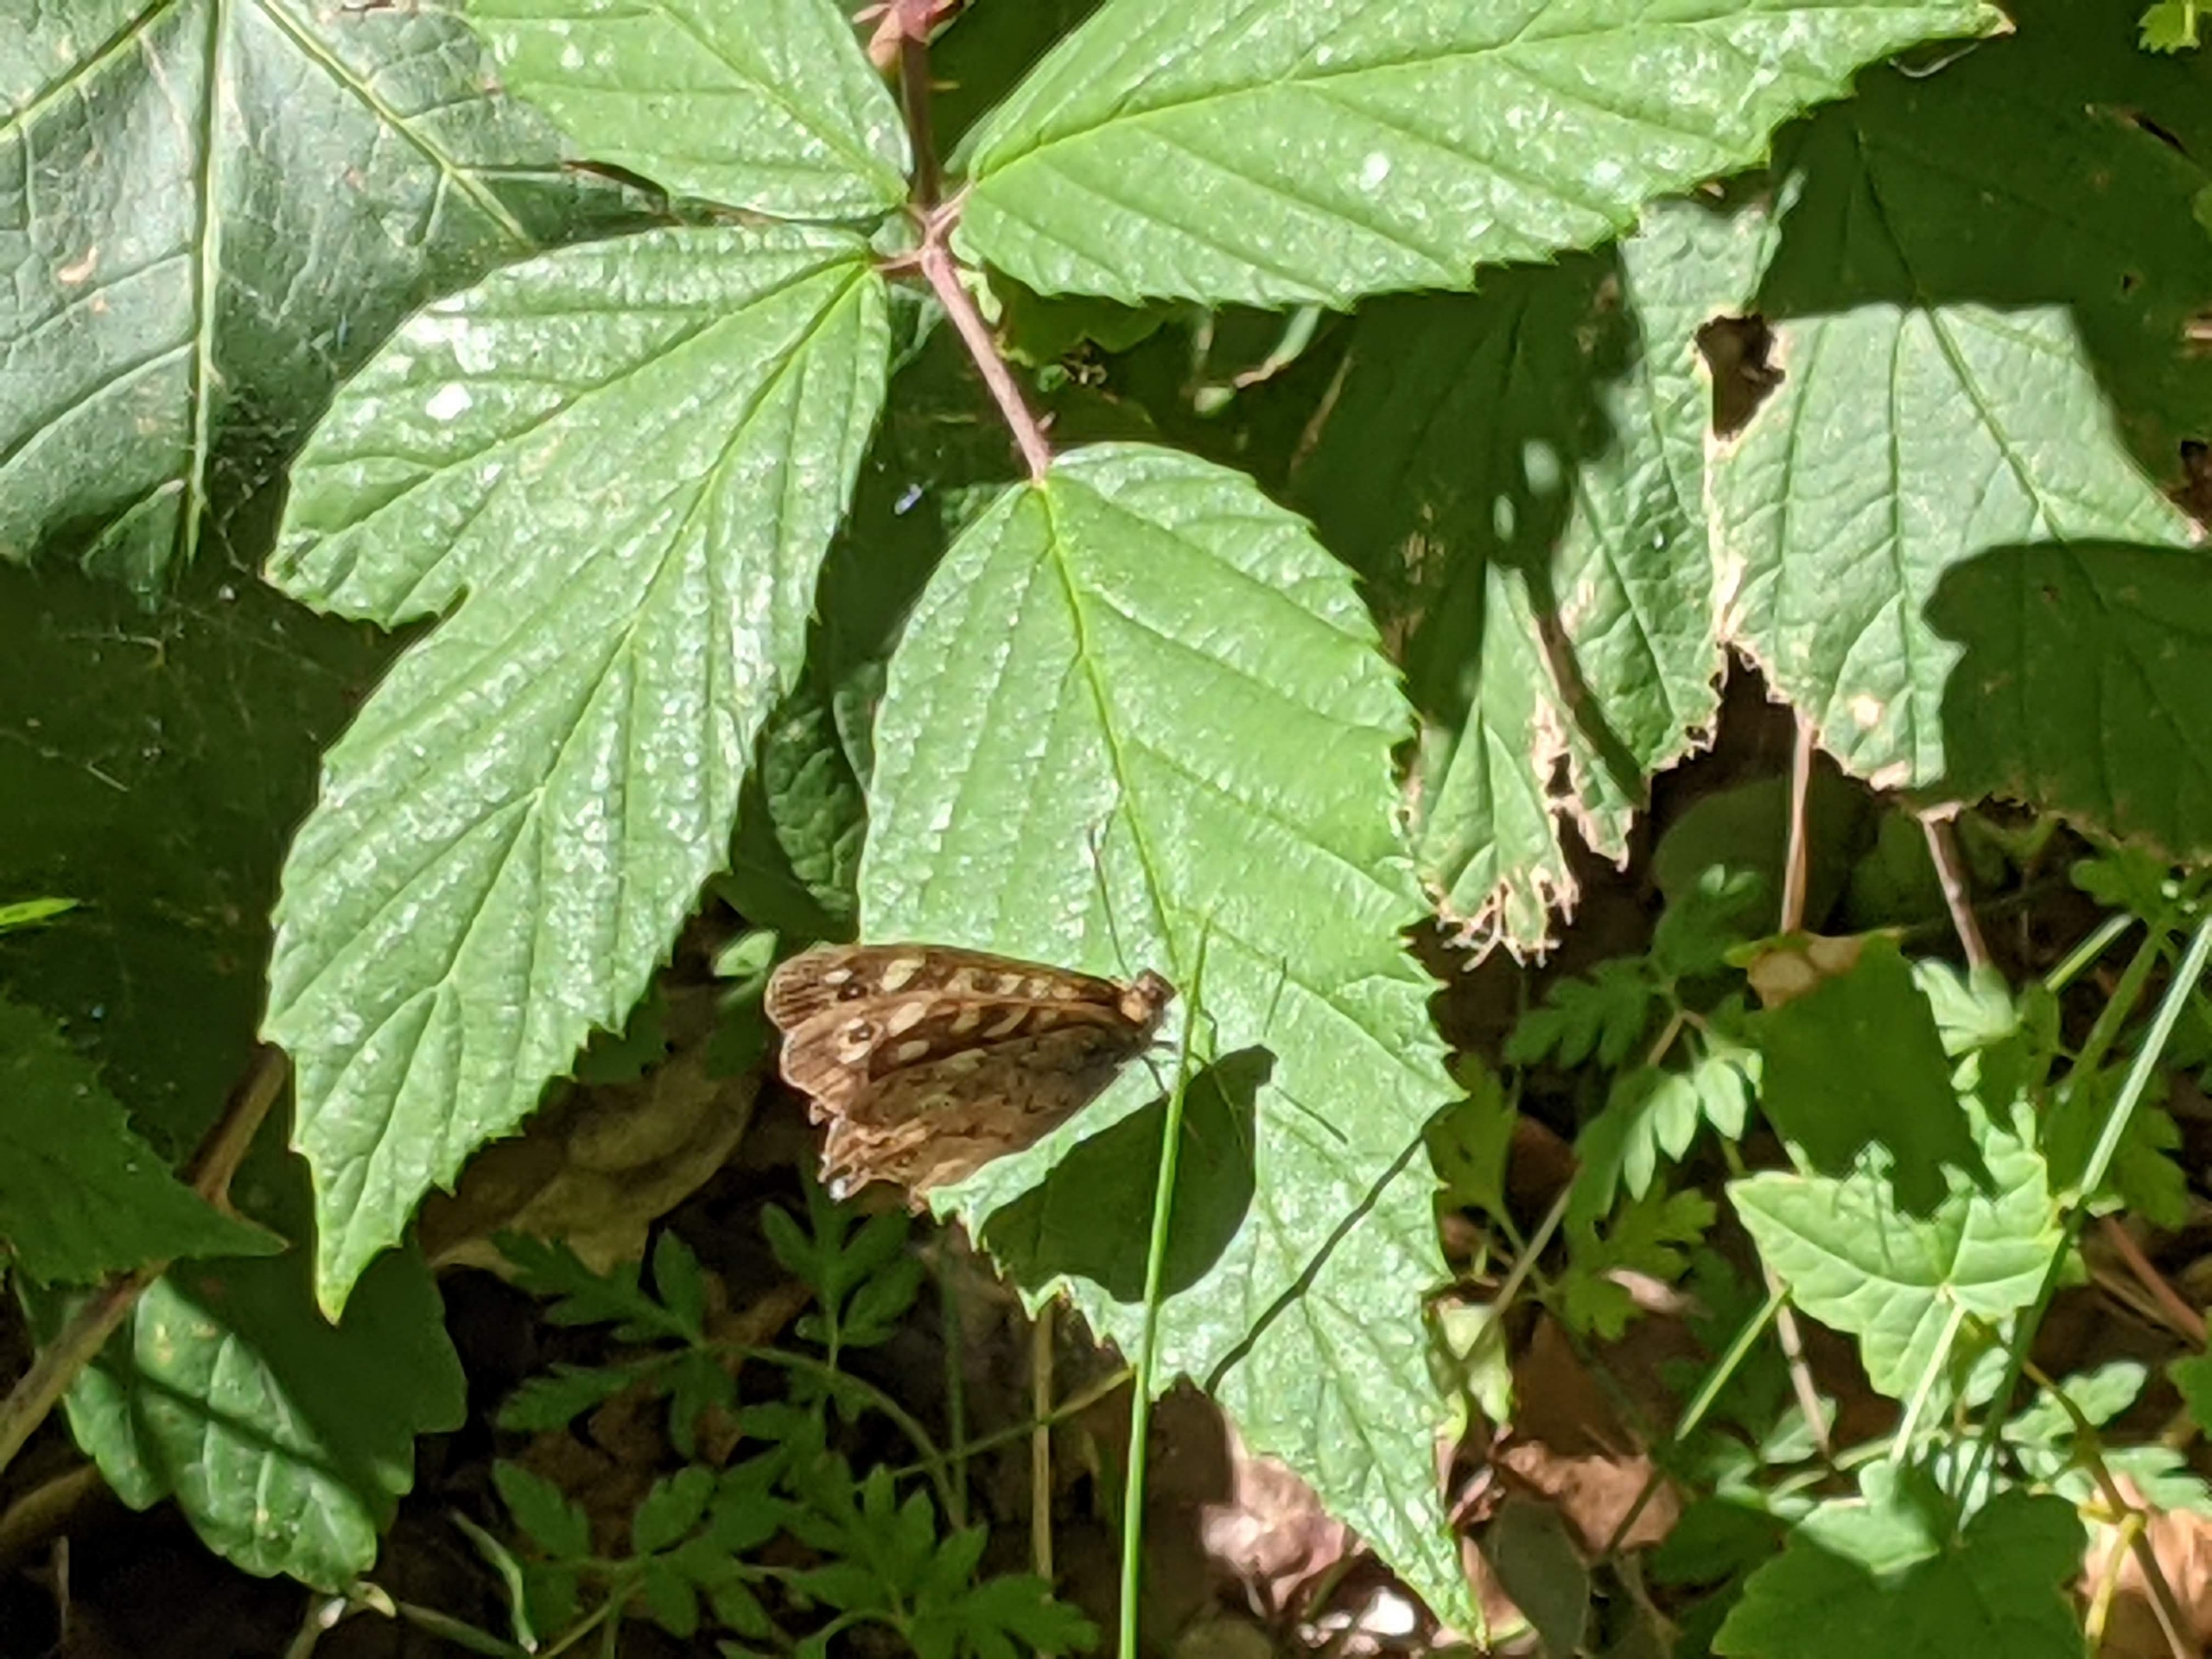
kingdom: Animalia
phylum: Arthropoda
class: Insecta
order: Lepidoptera
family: Nymphalidae
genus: Pararge
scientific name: Pararge aegeria
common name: Skovrandøje
